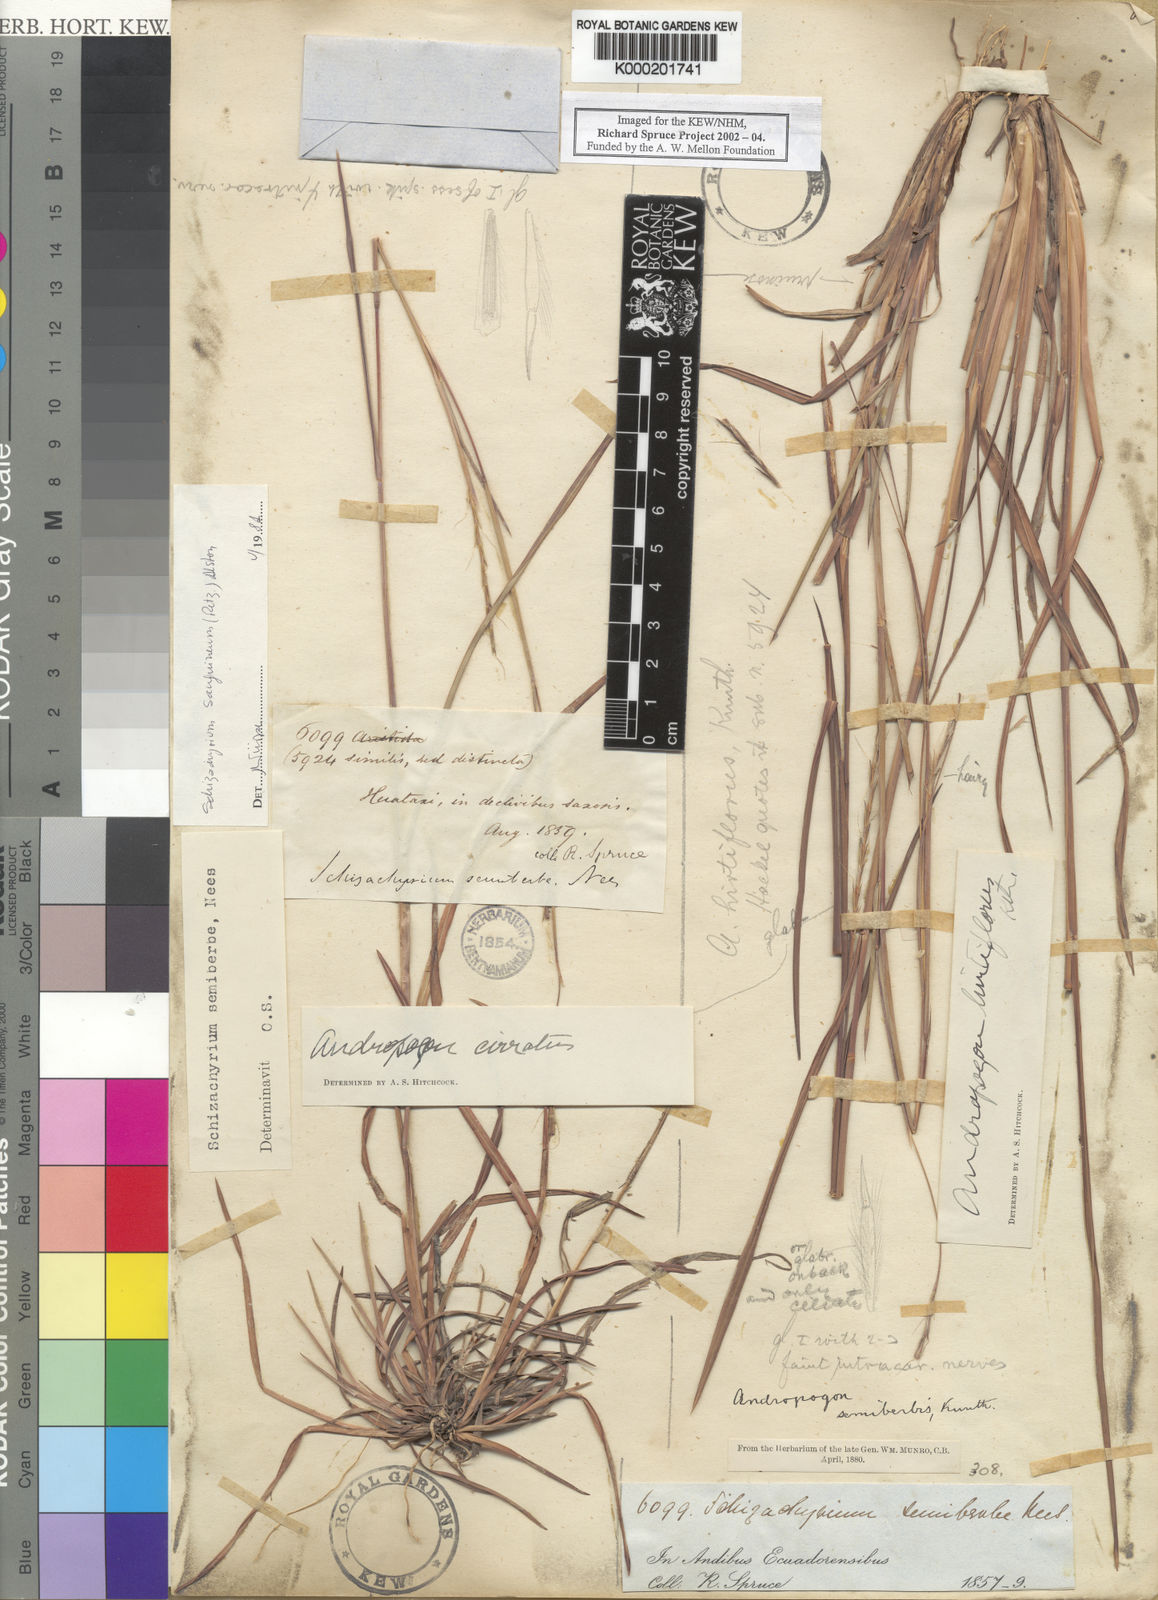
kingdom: Plantae
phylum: Tracheophyta
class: Liliopsida
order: Poales
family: Poaceae
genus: Schizachyrium
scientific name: Schizachyrium sanguineum
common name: Crimson bluestem
